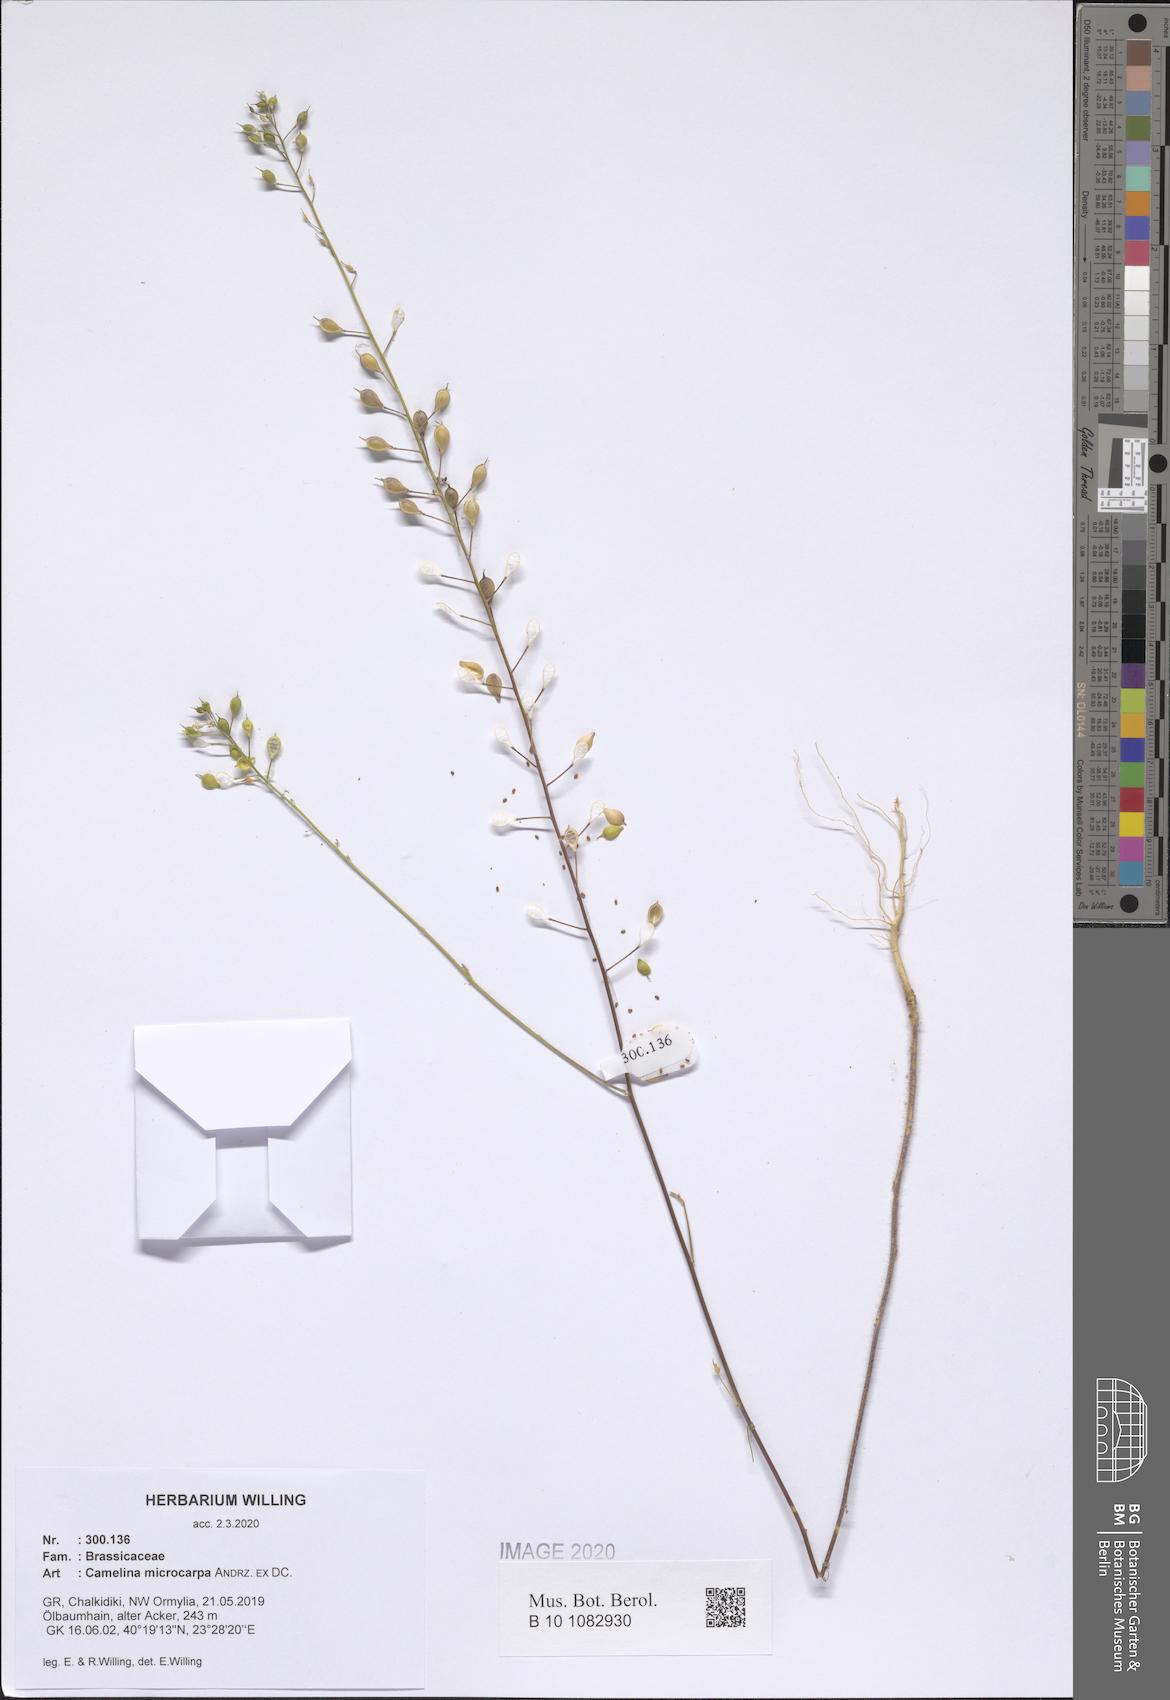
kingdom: Plantae
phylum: Tracheophyta
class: Magnoliopsida
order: Brassicales
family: Brassicaceae
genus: Camelina
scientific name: Camelina microcarpa
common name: Lesser gold-of-pleasure
